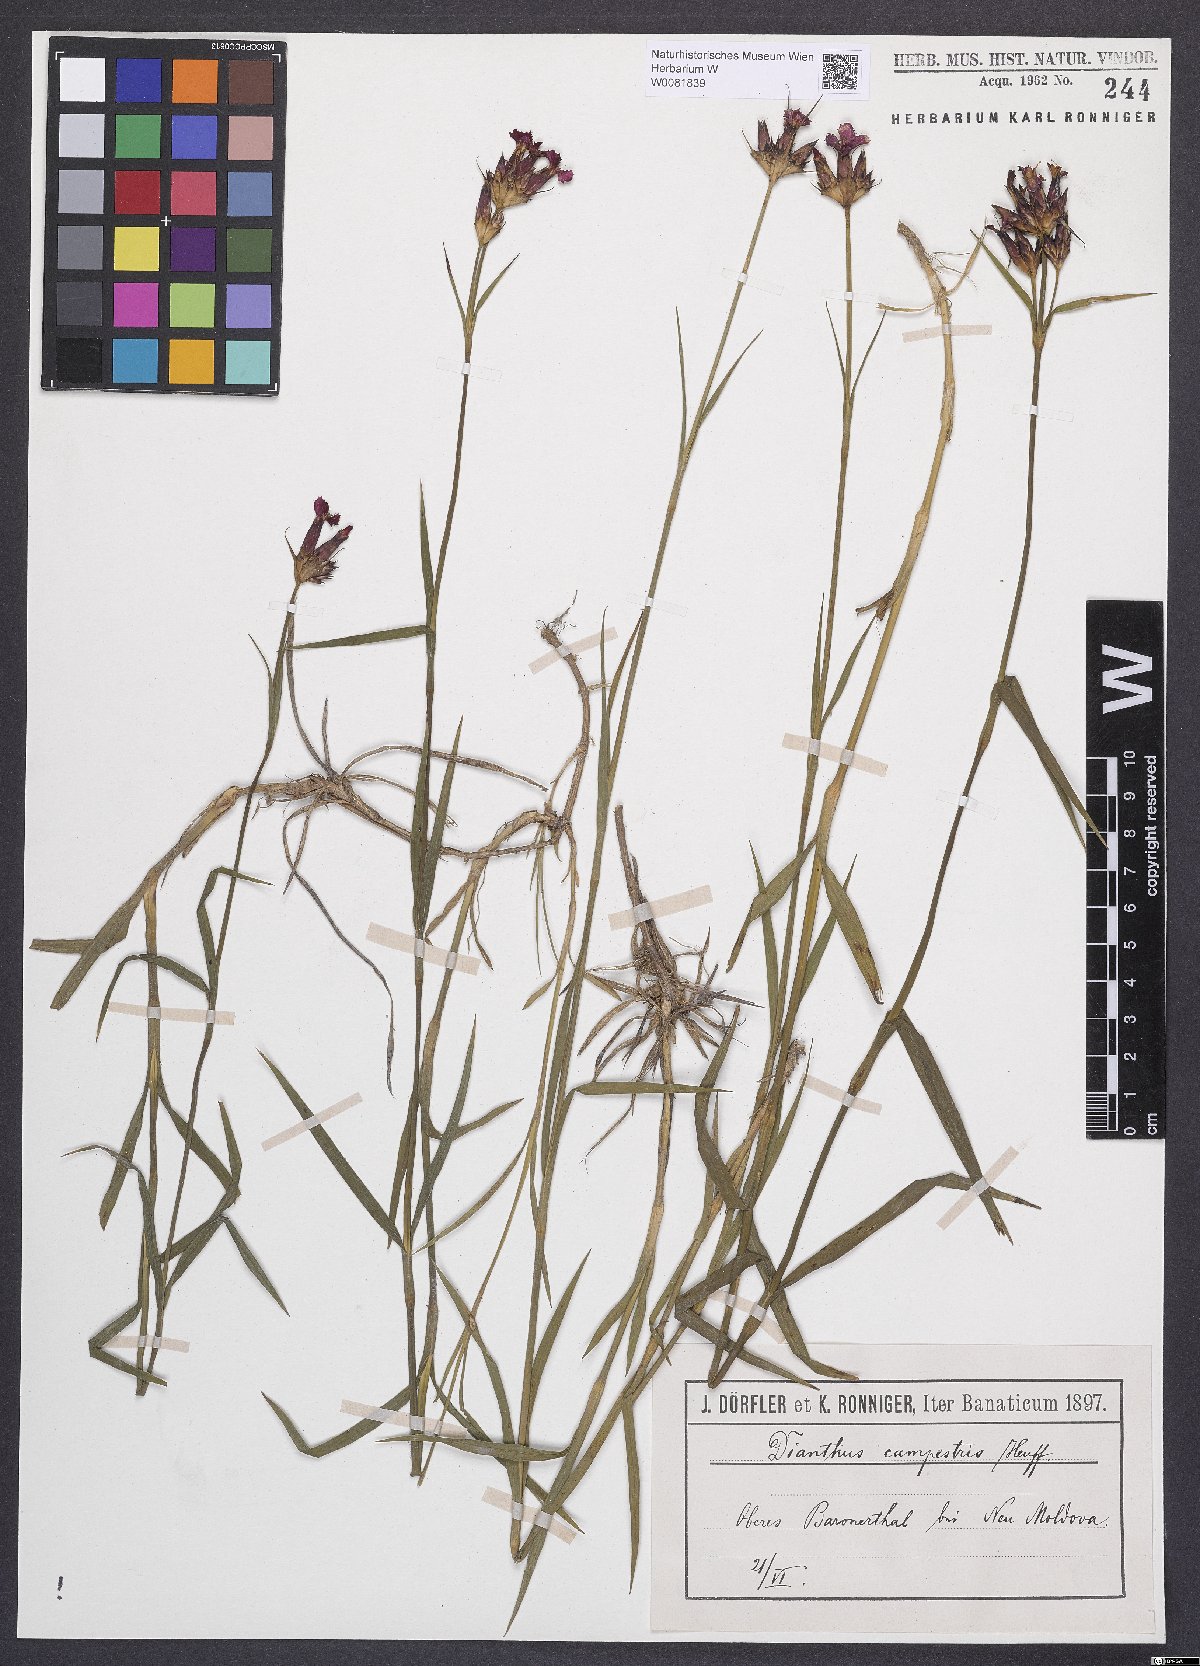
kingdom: Plantae
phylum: Tracheophyta
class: Magnoliopsida
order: Caryophyllales
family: Caryophyllaceae
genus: Dianthus
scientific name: Dianthus campestris
